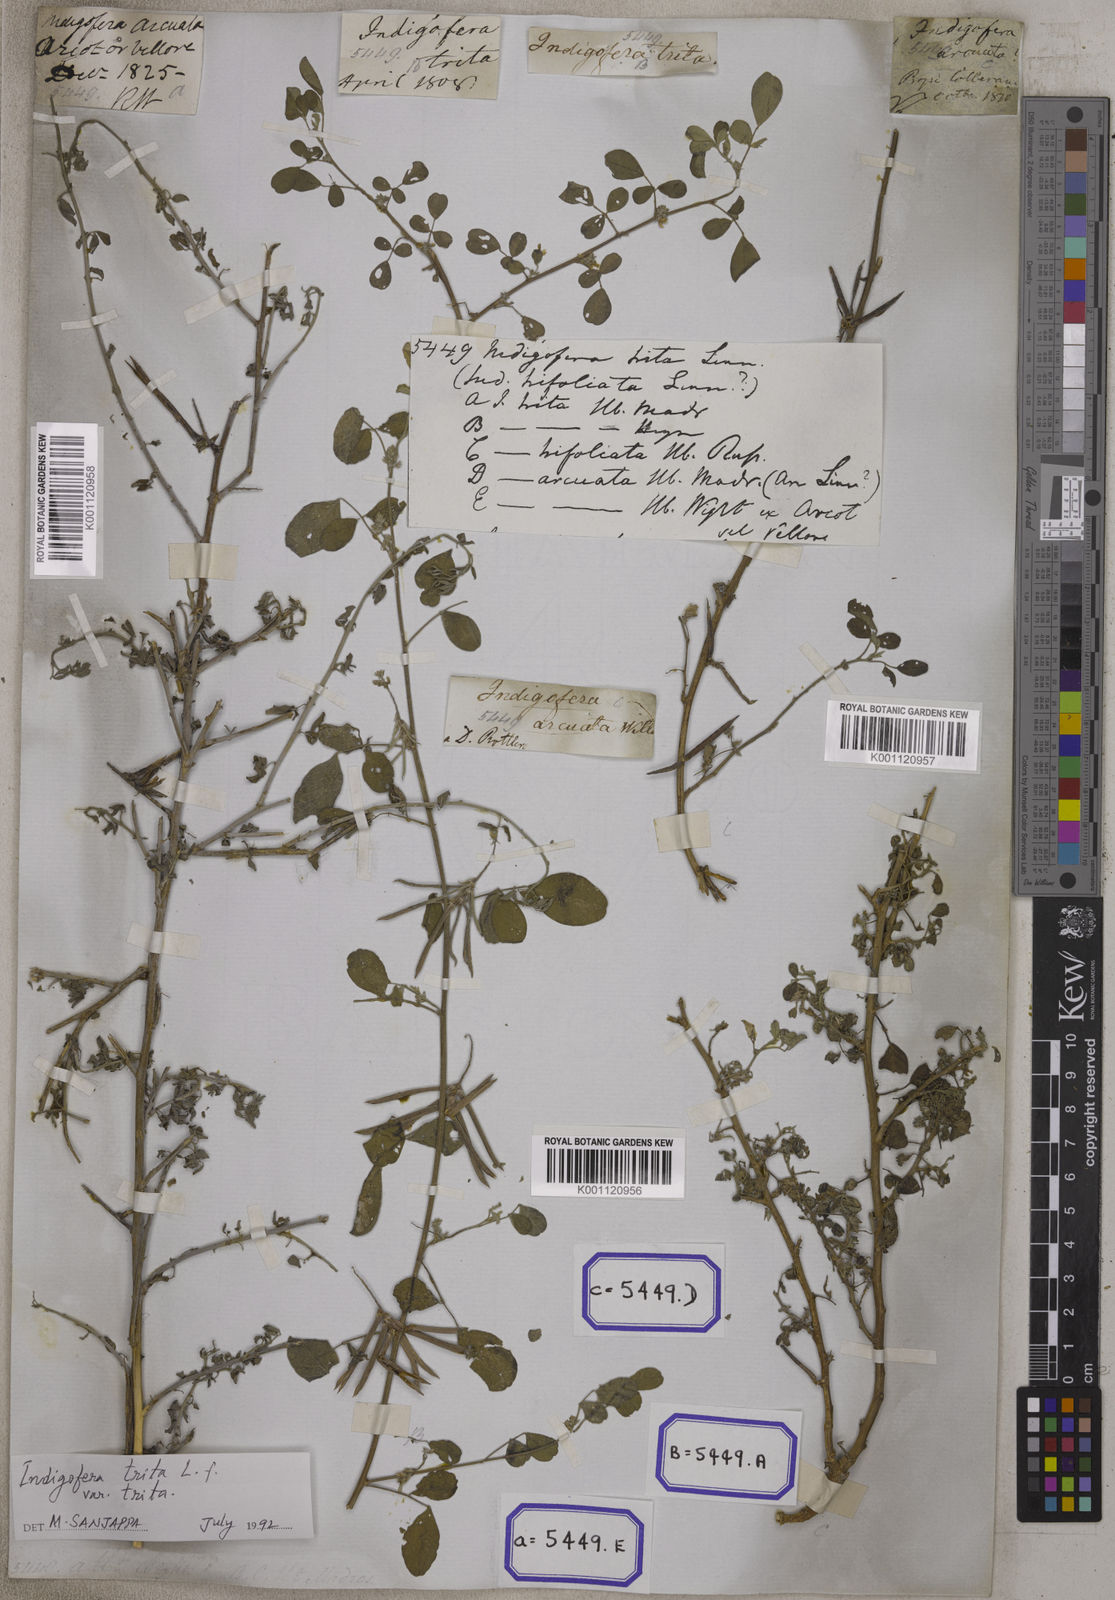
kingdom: Plantae
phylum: Tracheophyta
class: Magnoliopsida
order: Fabales
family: Fabaceae
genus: Indigofera
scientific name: Indigofera trita
